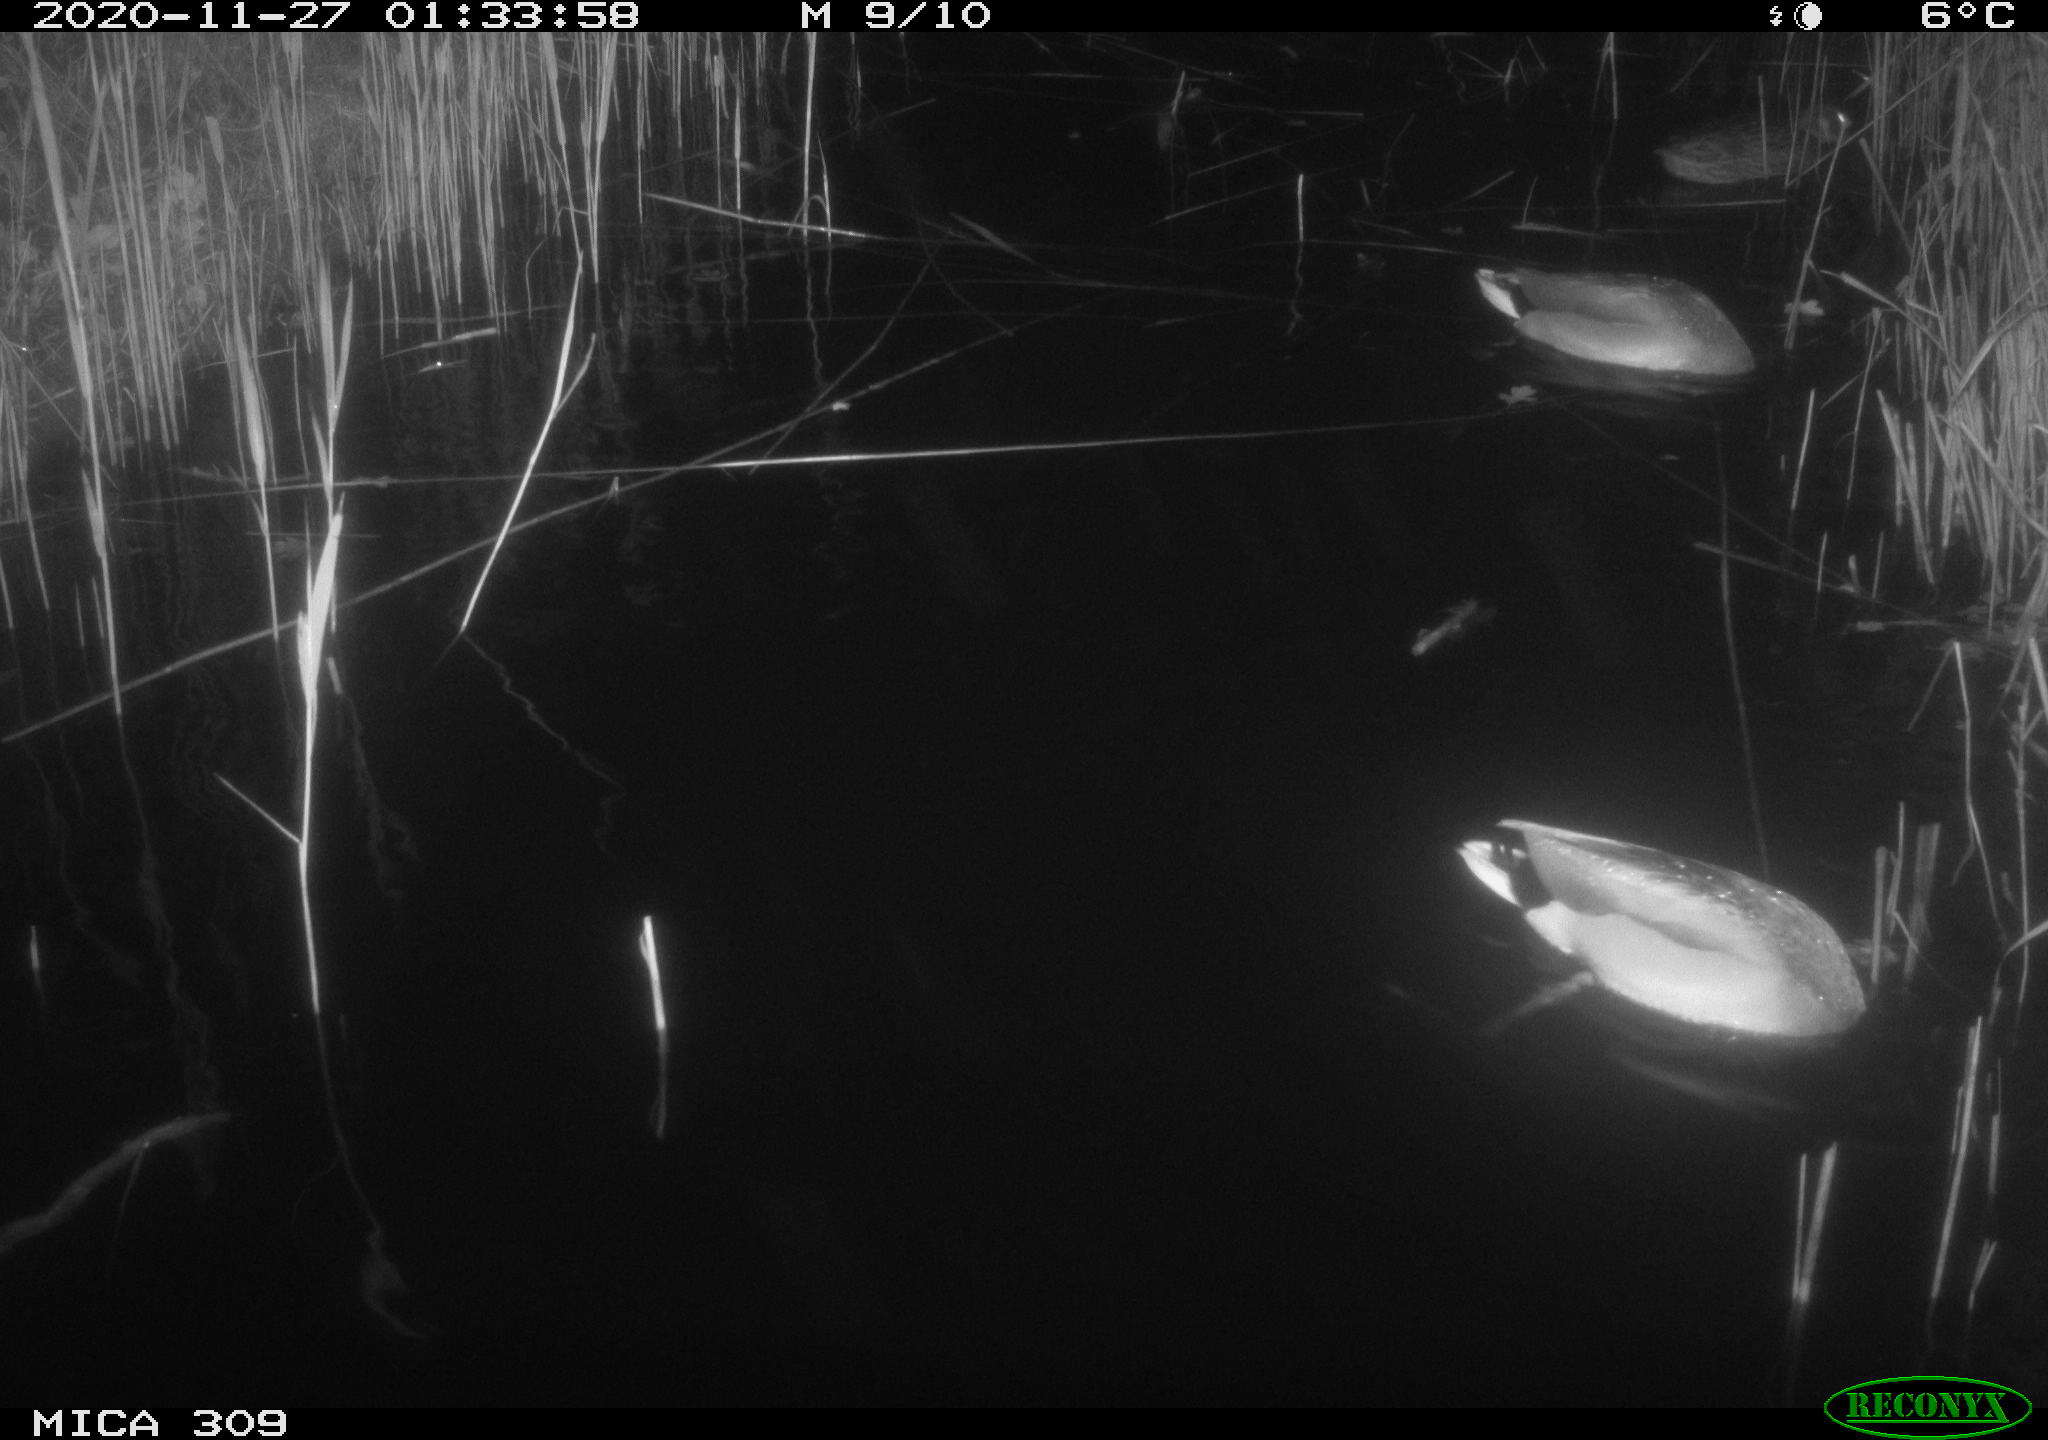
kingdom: Animalia
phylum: Chordata
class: Aves
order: Anseriformes
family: Anatidae
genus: Anas
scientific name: Anas platyrhynchos
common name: Mallard
